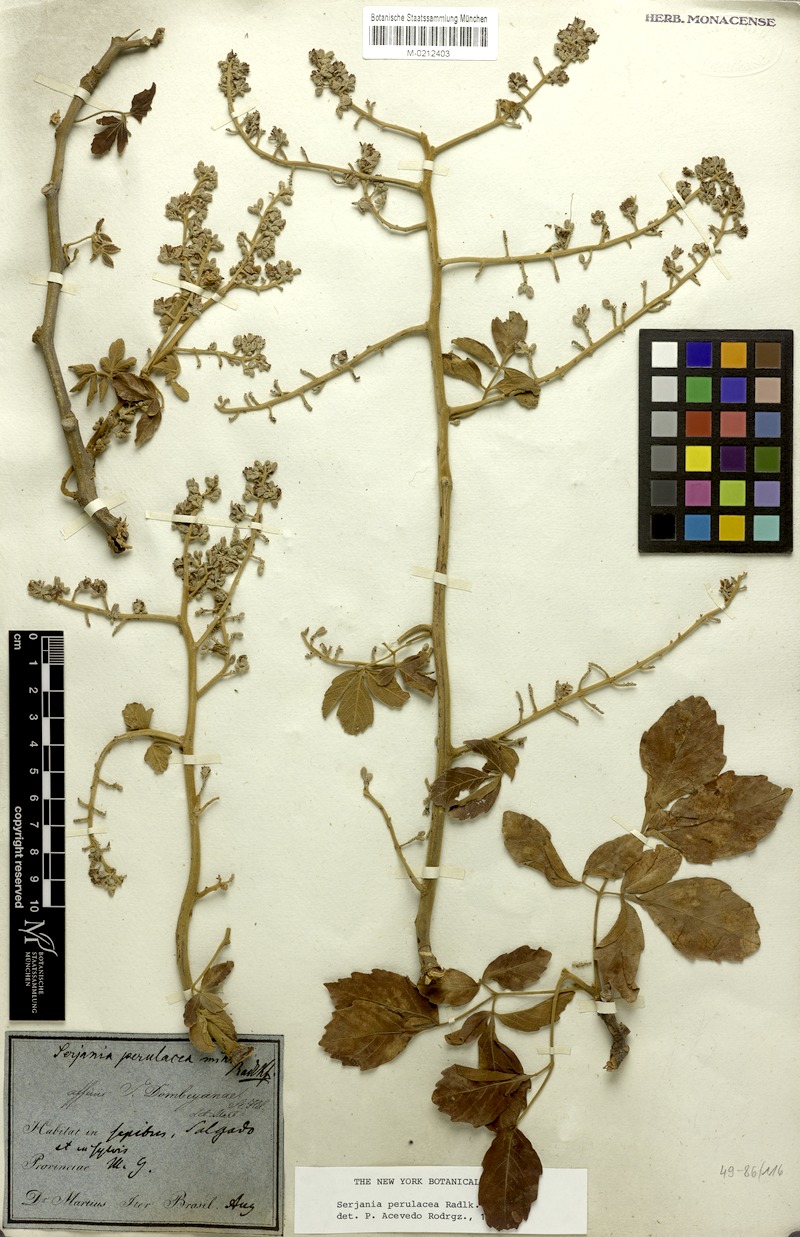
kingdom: Plantae
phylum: Tracheophyta
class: Magnoliopsida
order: Sapindales
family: Sapindaceae
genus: Serjania
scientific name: Serjania perulacea
